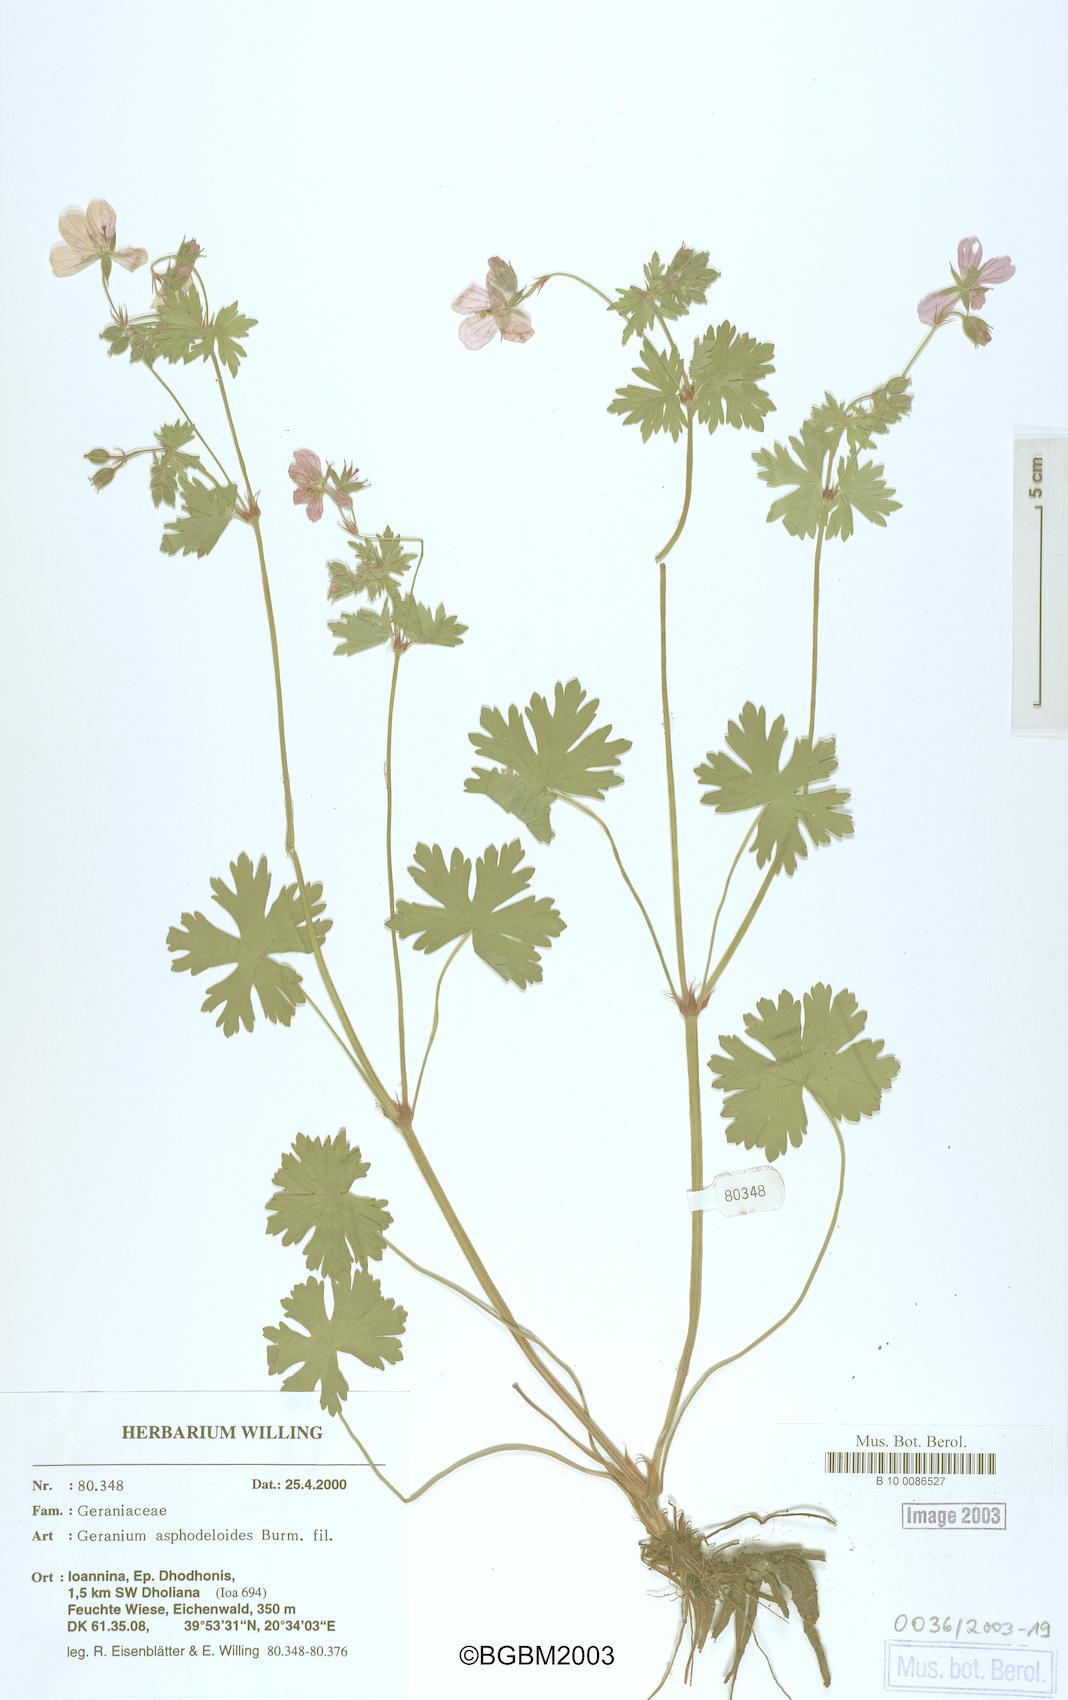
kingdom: Plantae
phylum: Tracheophyta
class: Magnoliopsida
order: Geraniales
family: Geraniaceae
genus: Geranium
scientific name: Geranium asphodeloides
